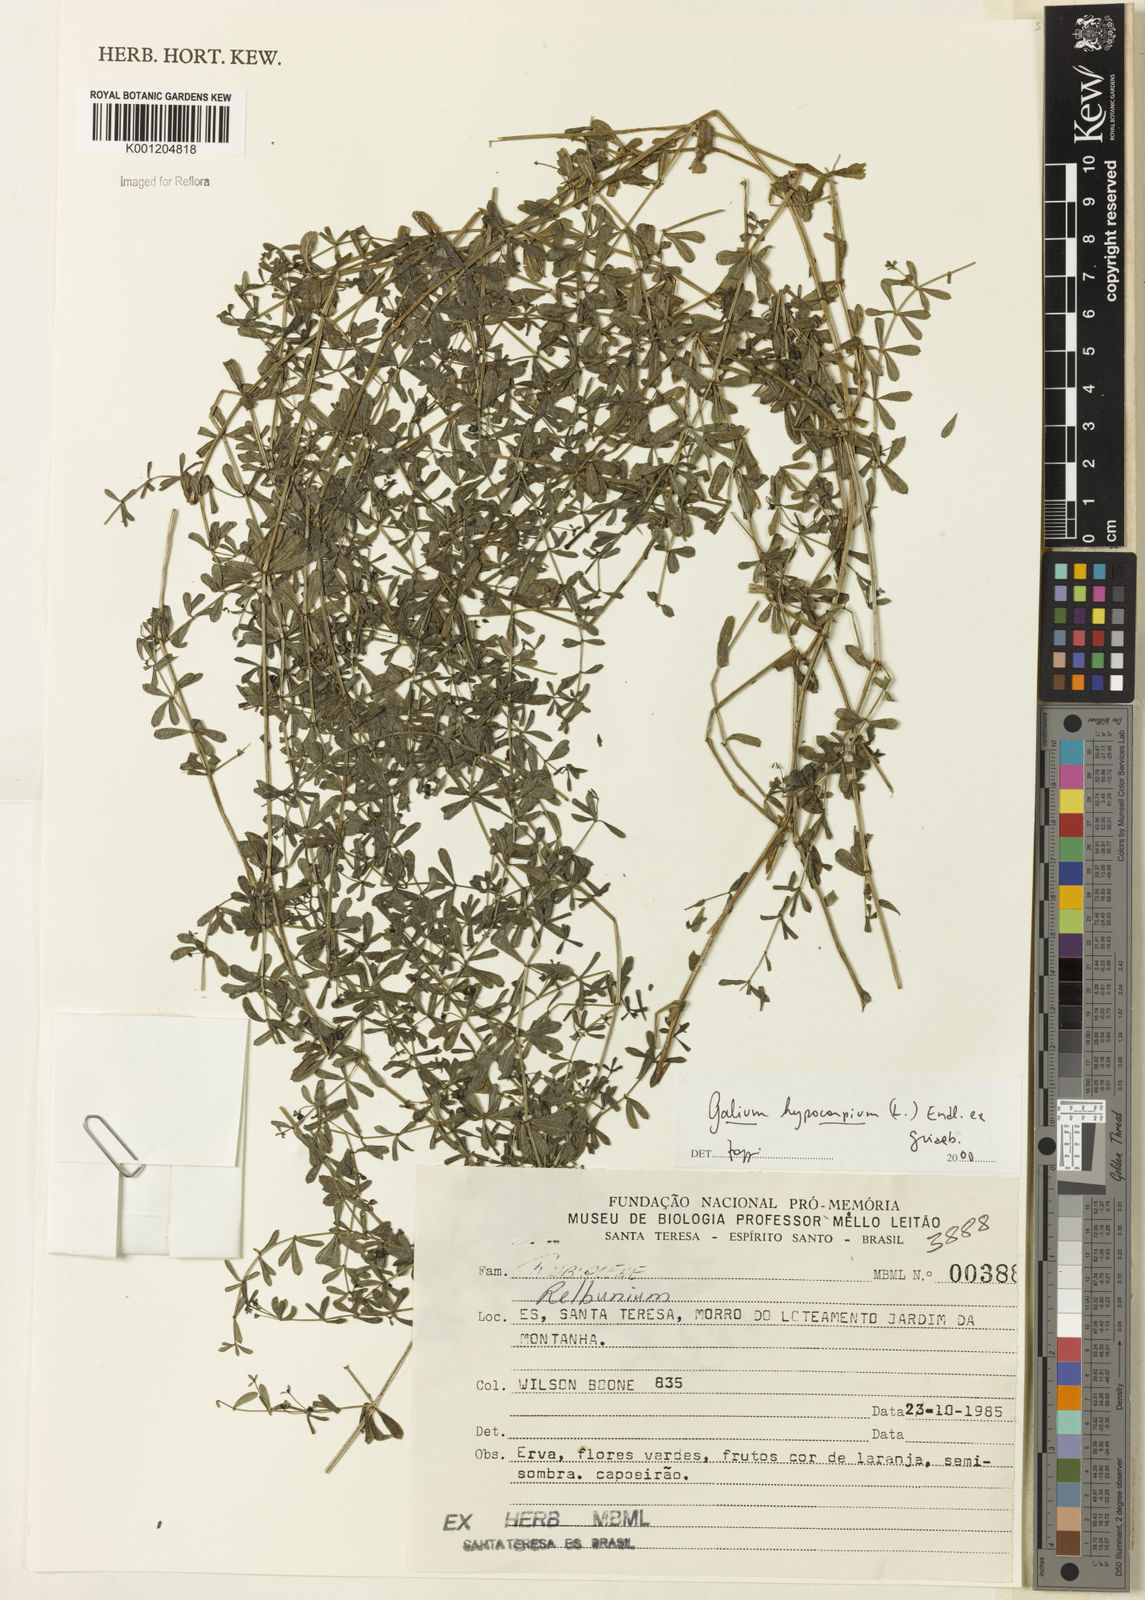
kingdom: Plantae
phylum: Tracheophyta
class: Magnoliopsida
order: Gentianales
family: Rubiaceae
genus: Galium
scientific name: Galium hypocarpium
